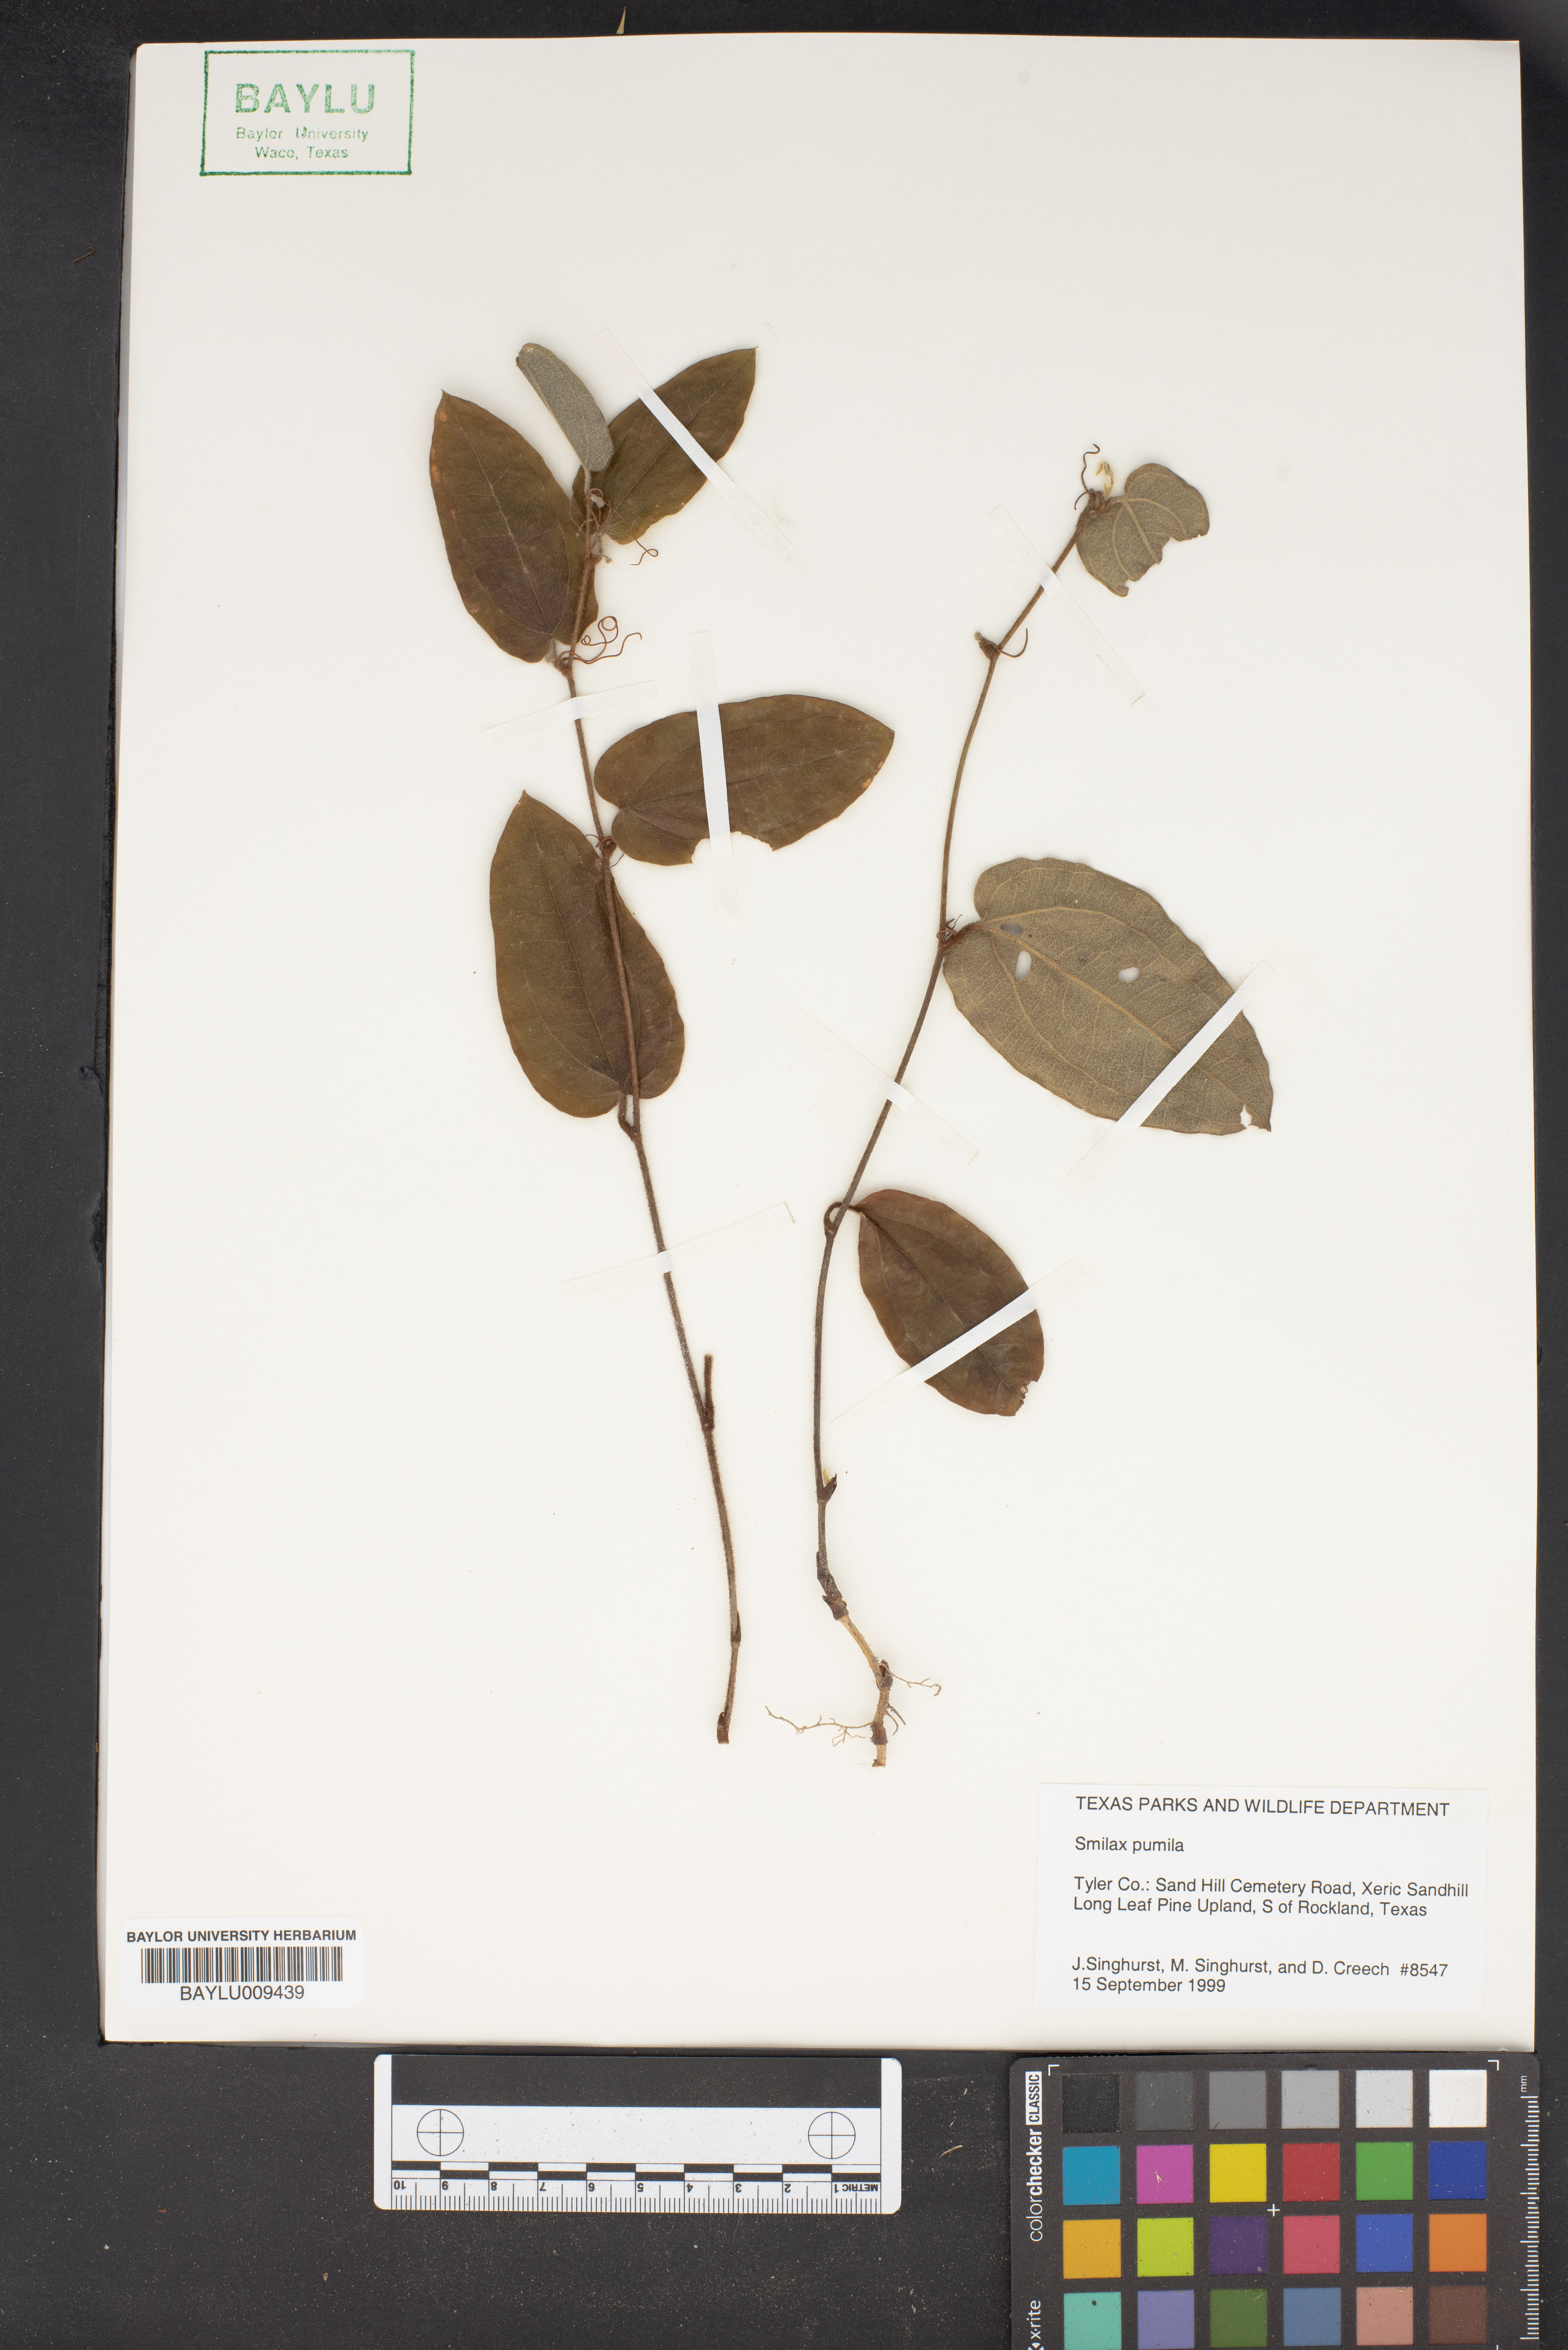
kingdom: Plantae
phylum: Tracheophyta
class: Liliopsida
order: Liliales
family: Smilacaceae
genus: Smilax
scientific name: Smilax pumila
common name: Sarsaparilla-vine
